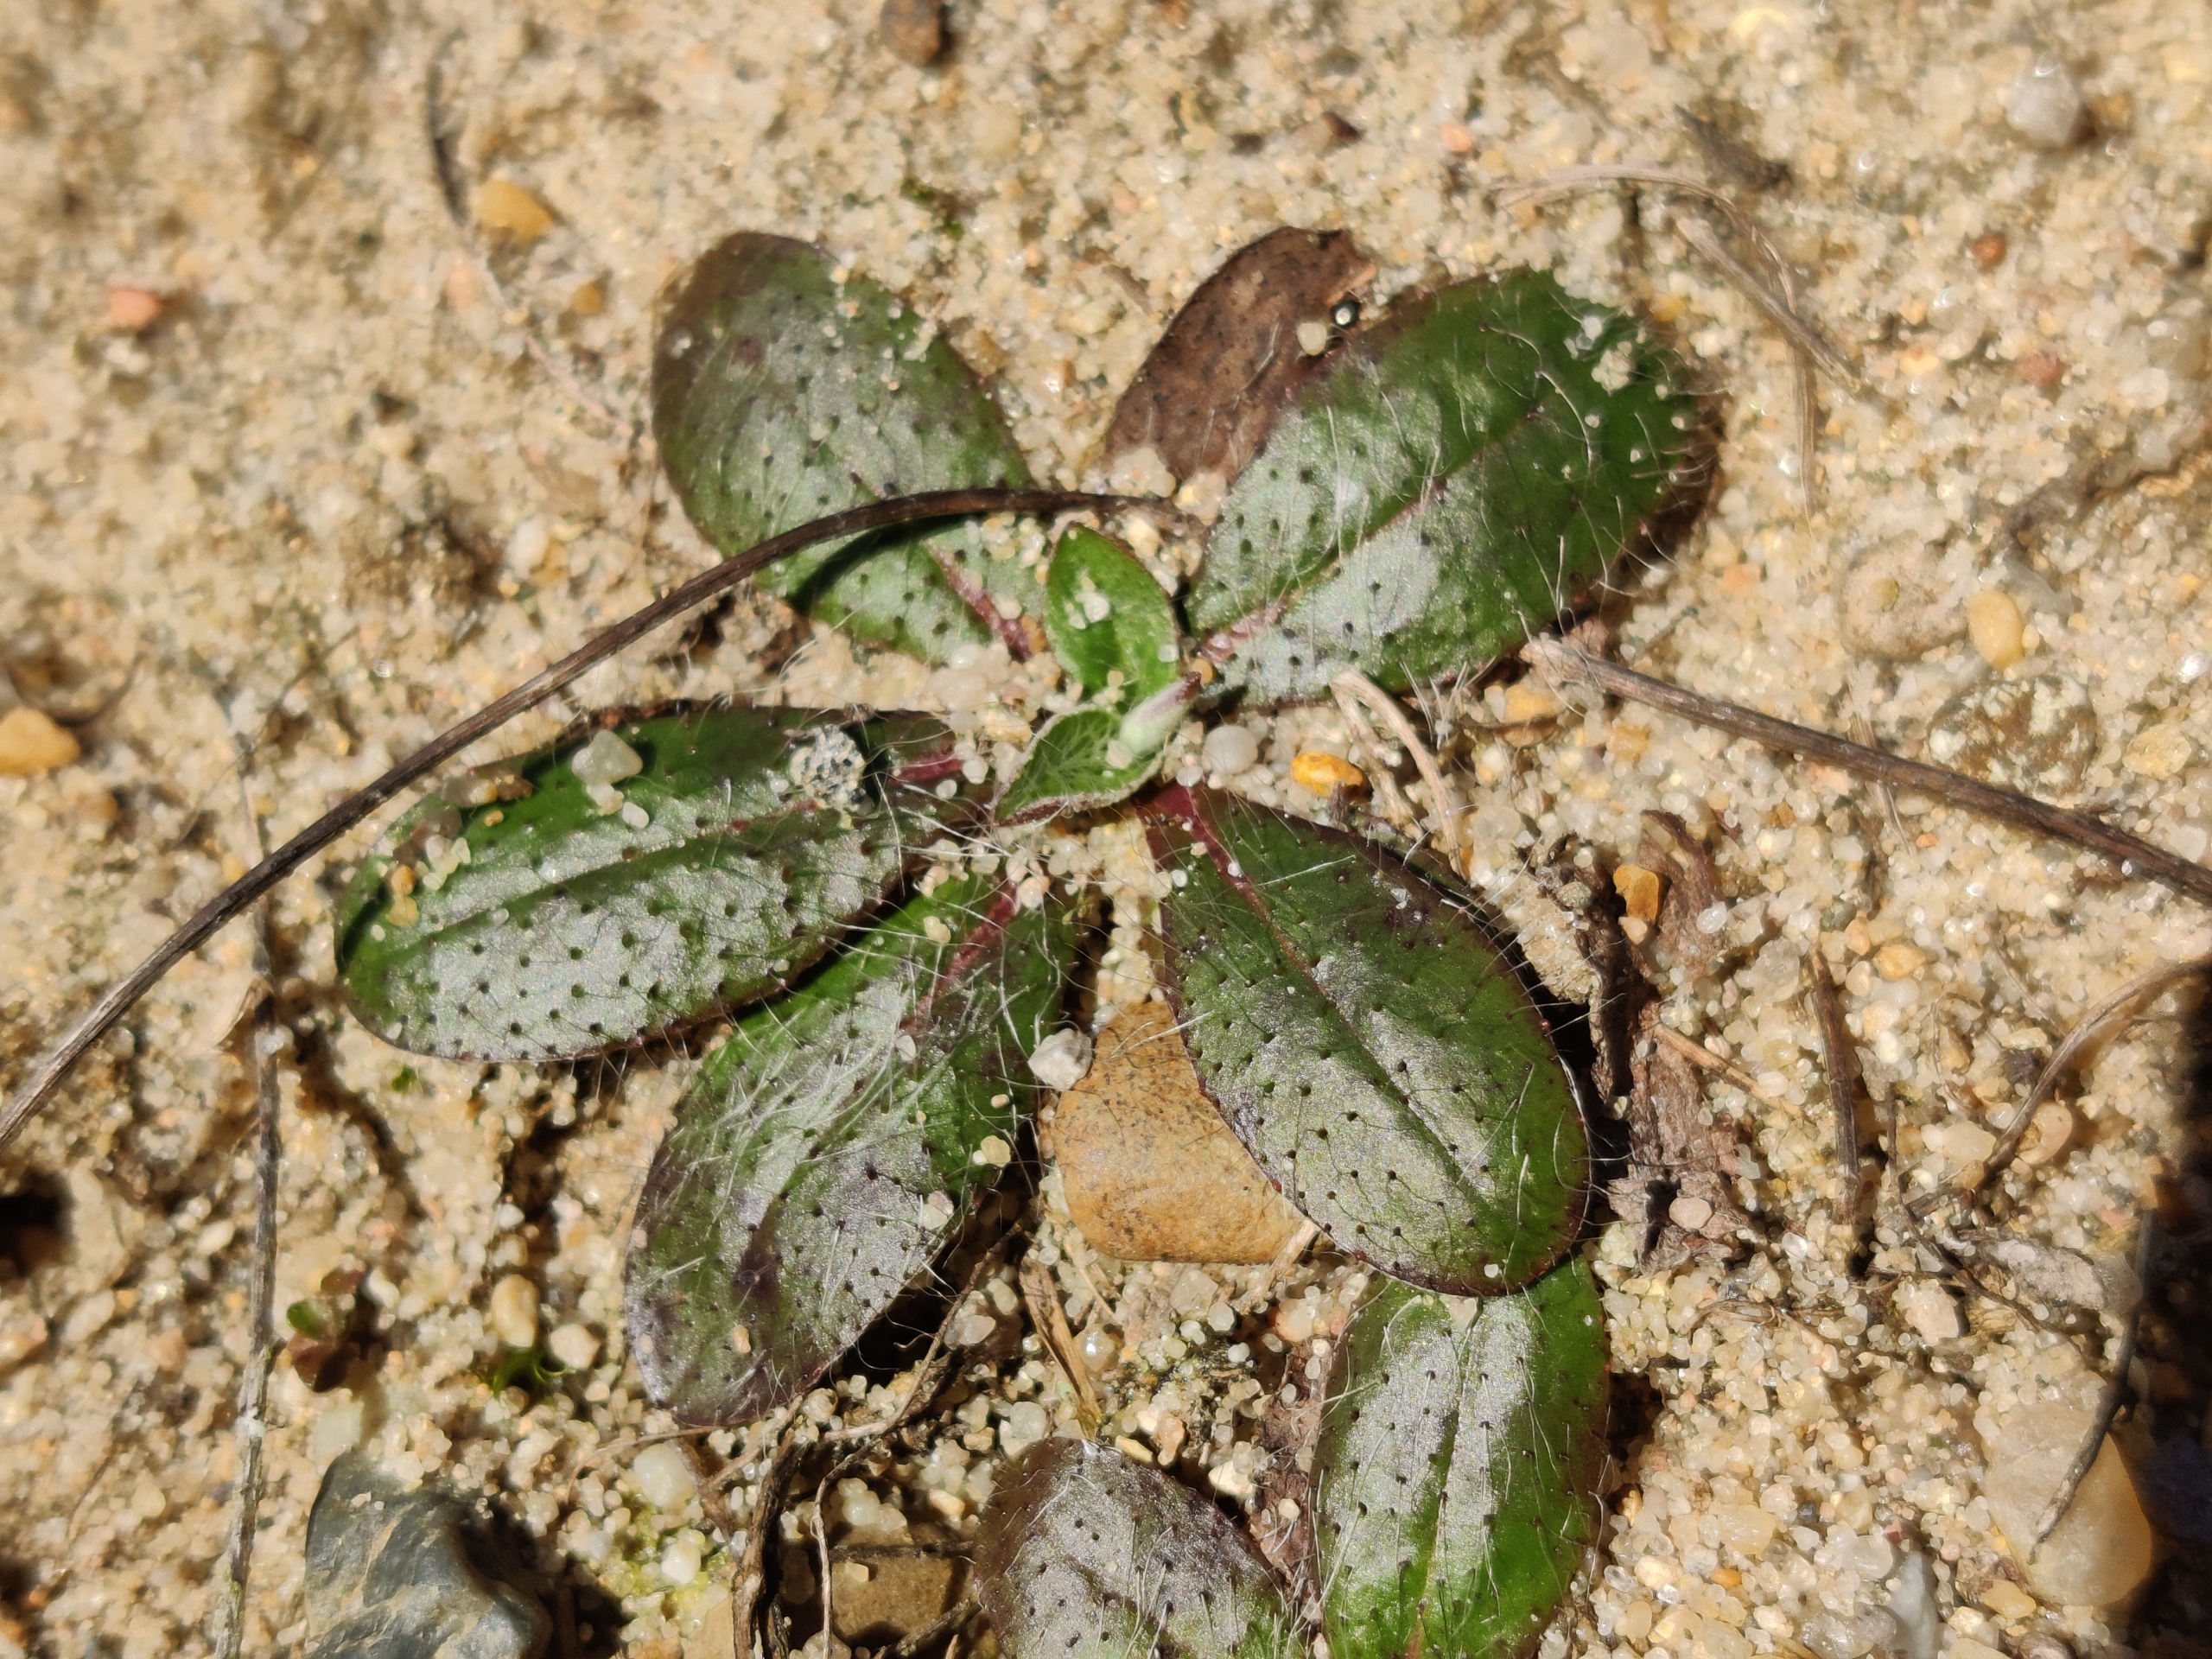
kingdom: Plantae
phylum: Tracheophyta
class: Magnoliopsida
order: Asterales
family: Asteraceae
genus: Pilosella
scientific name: Pilosella officinarum
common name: Håret høgeurt
